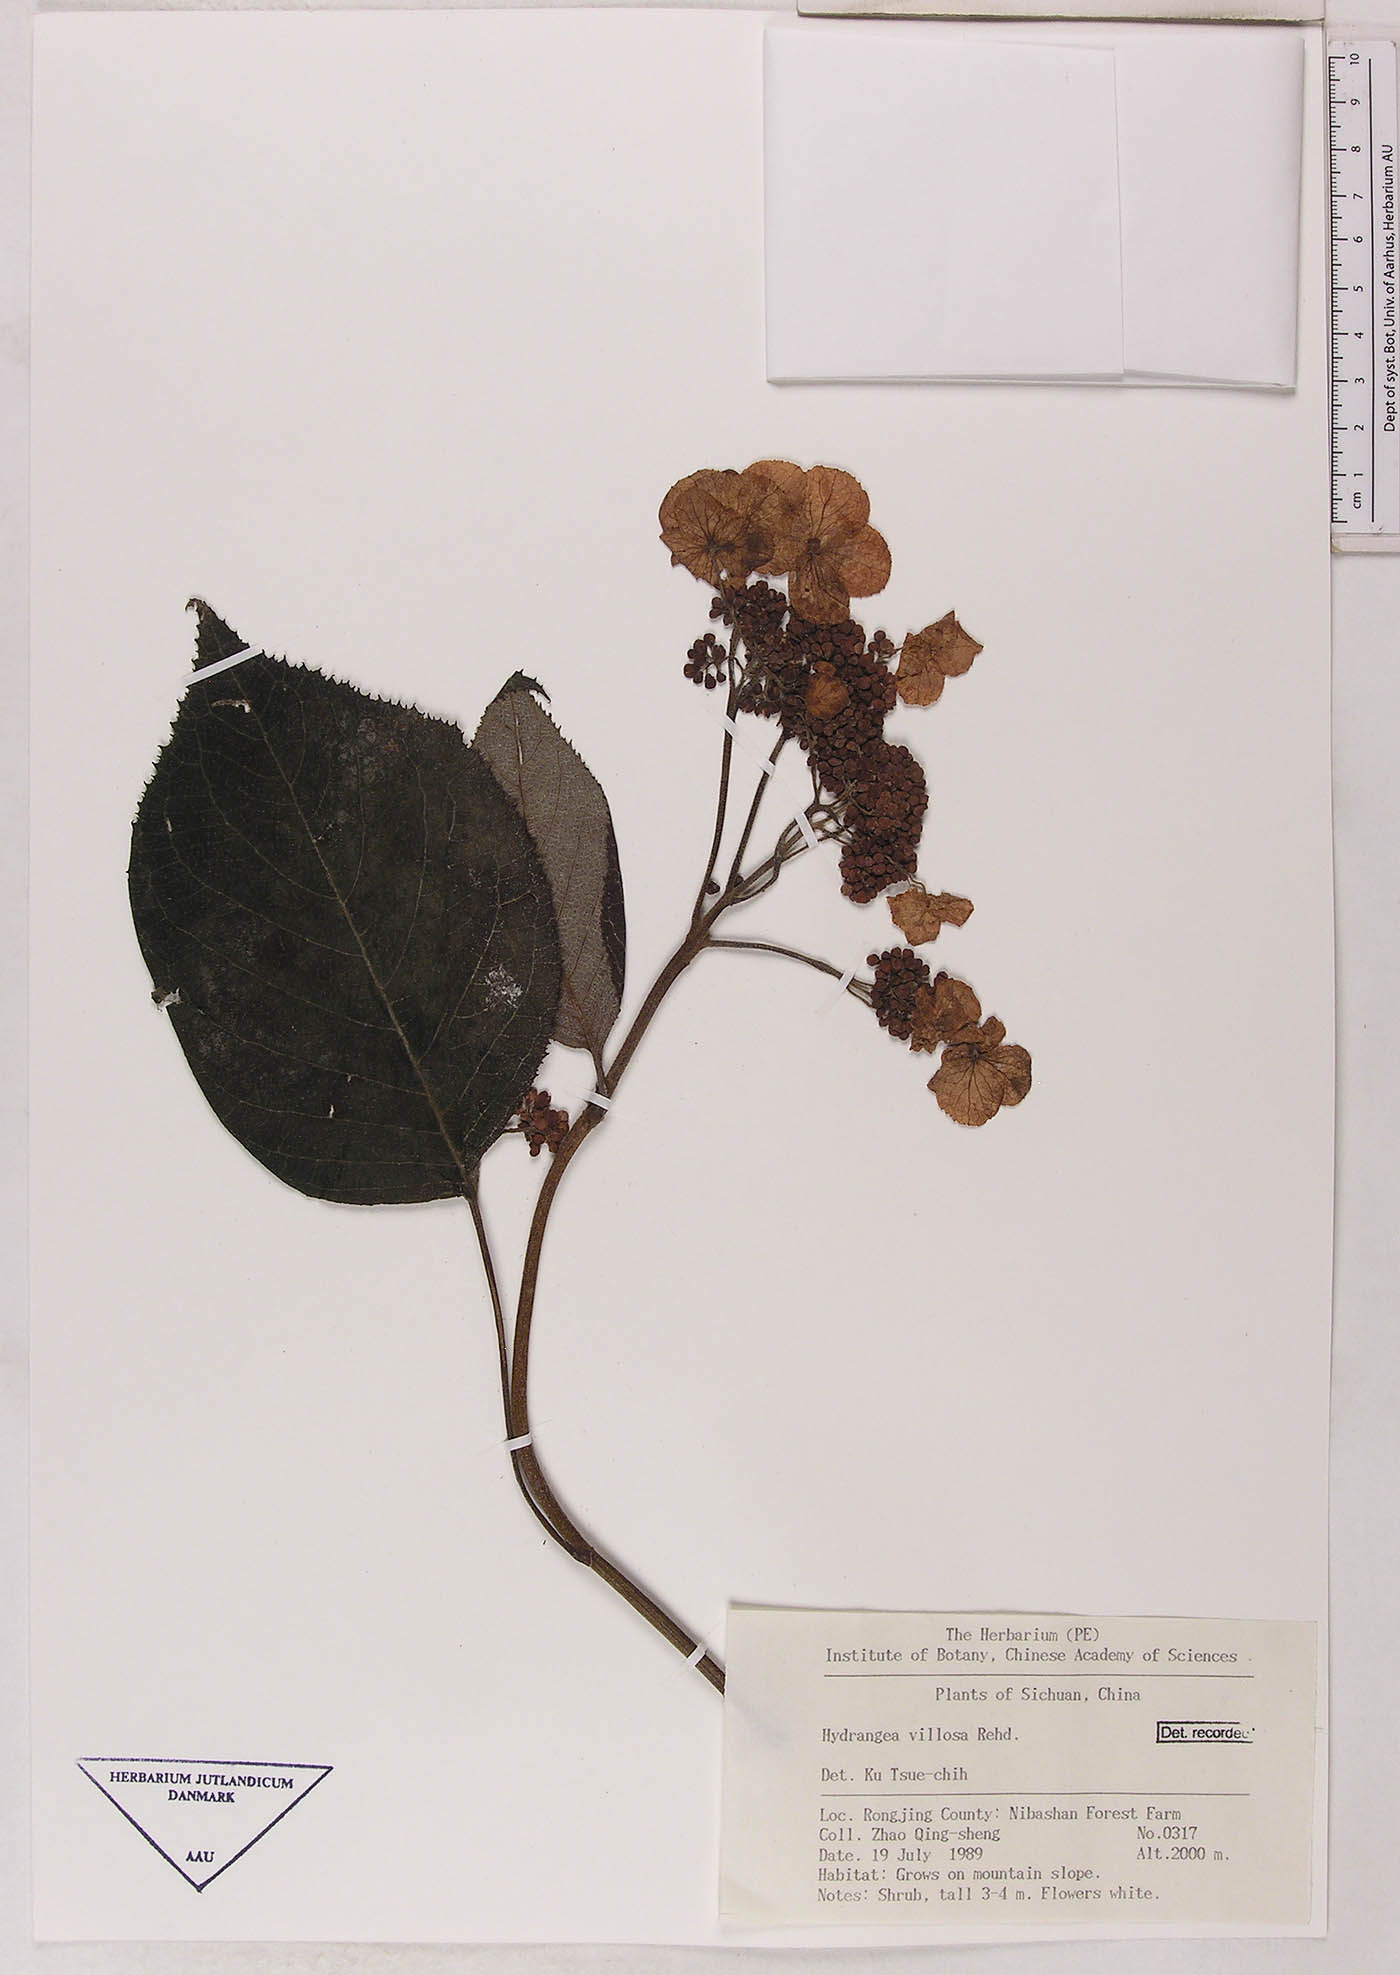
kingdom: Plantae
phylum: Tracheophyta
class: Magnoliopsida
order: Cornales
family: Hydrangeaceae
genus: Hydrangea
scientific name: Hydrangea aspera
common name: Rough-leaf hydrangea
